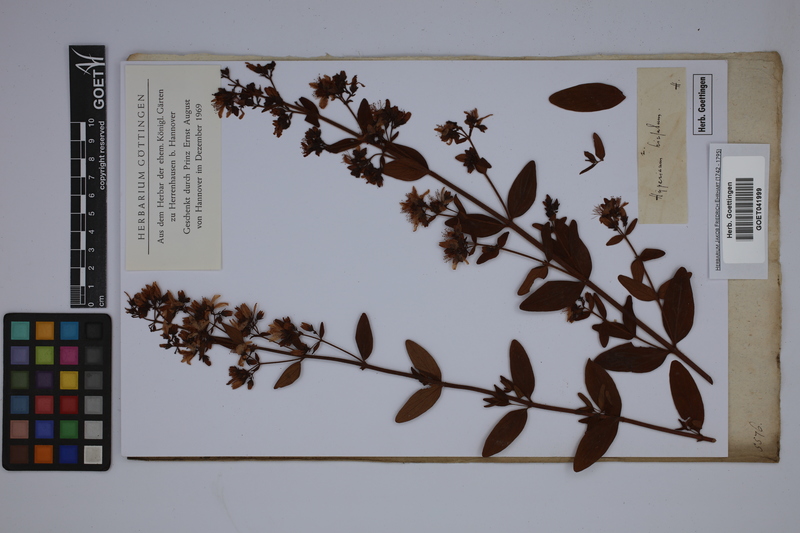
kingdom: Plantae
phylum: Tracheophyta
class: Magnoliopsida
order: Malpighiales
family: Hypericaceae
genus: Hypericum
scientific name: Hypericum hirsutum
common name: Hairy st. john's-wort
